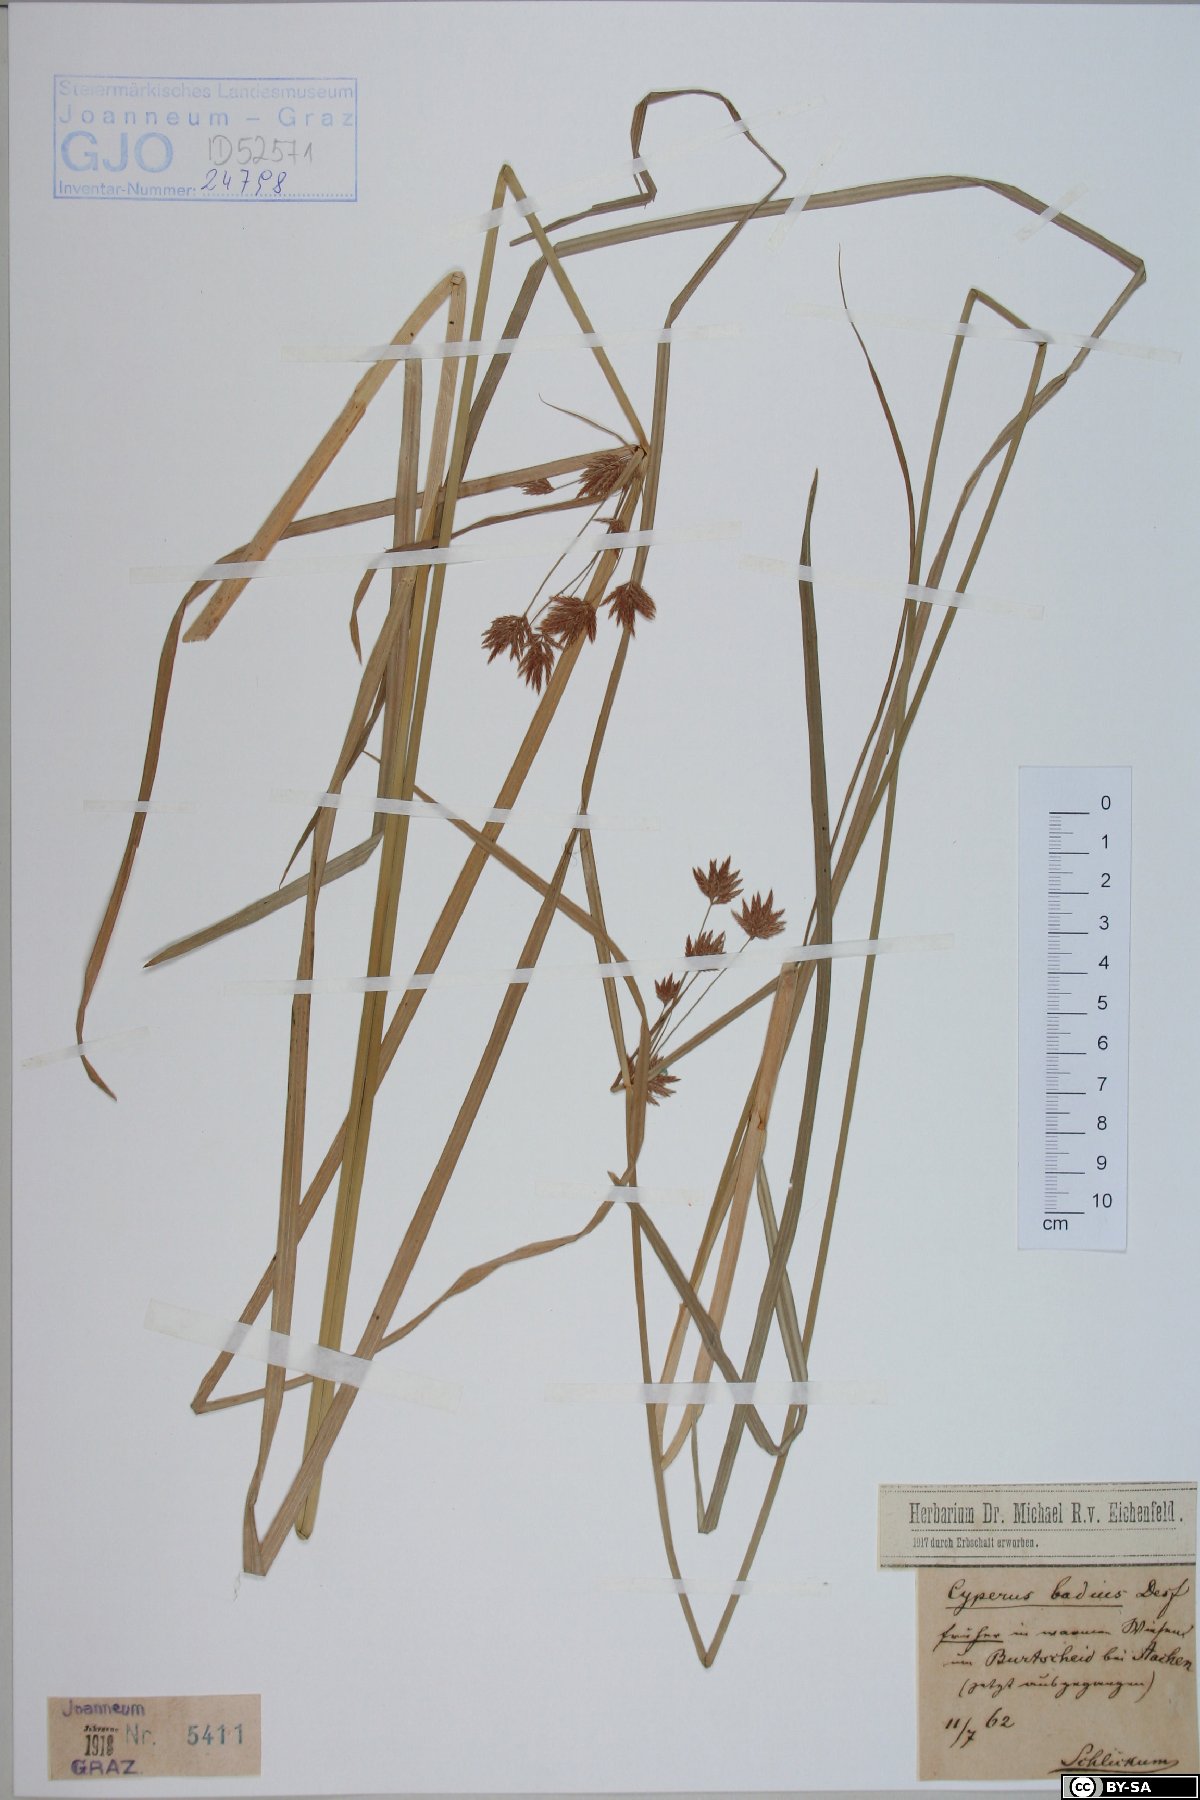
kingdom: Plantae
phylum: Tracheophyta
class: Liliopsida
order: Poales
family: Cyperaceae
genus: Cyperus
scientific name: Cyperus longus
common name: Galingale
